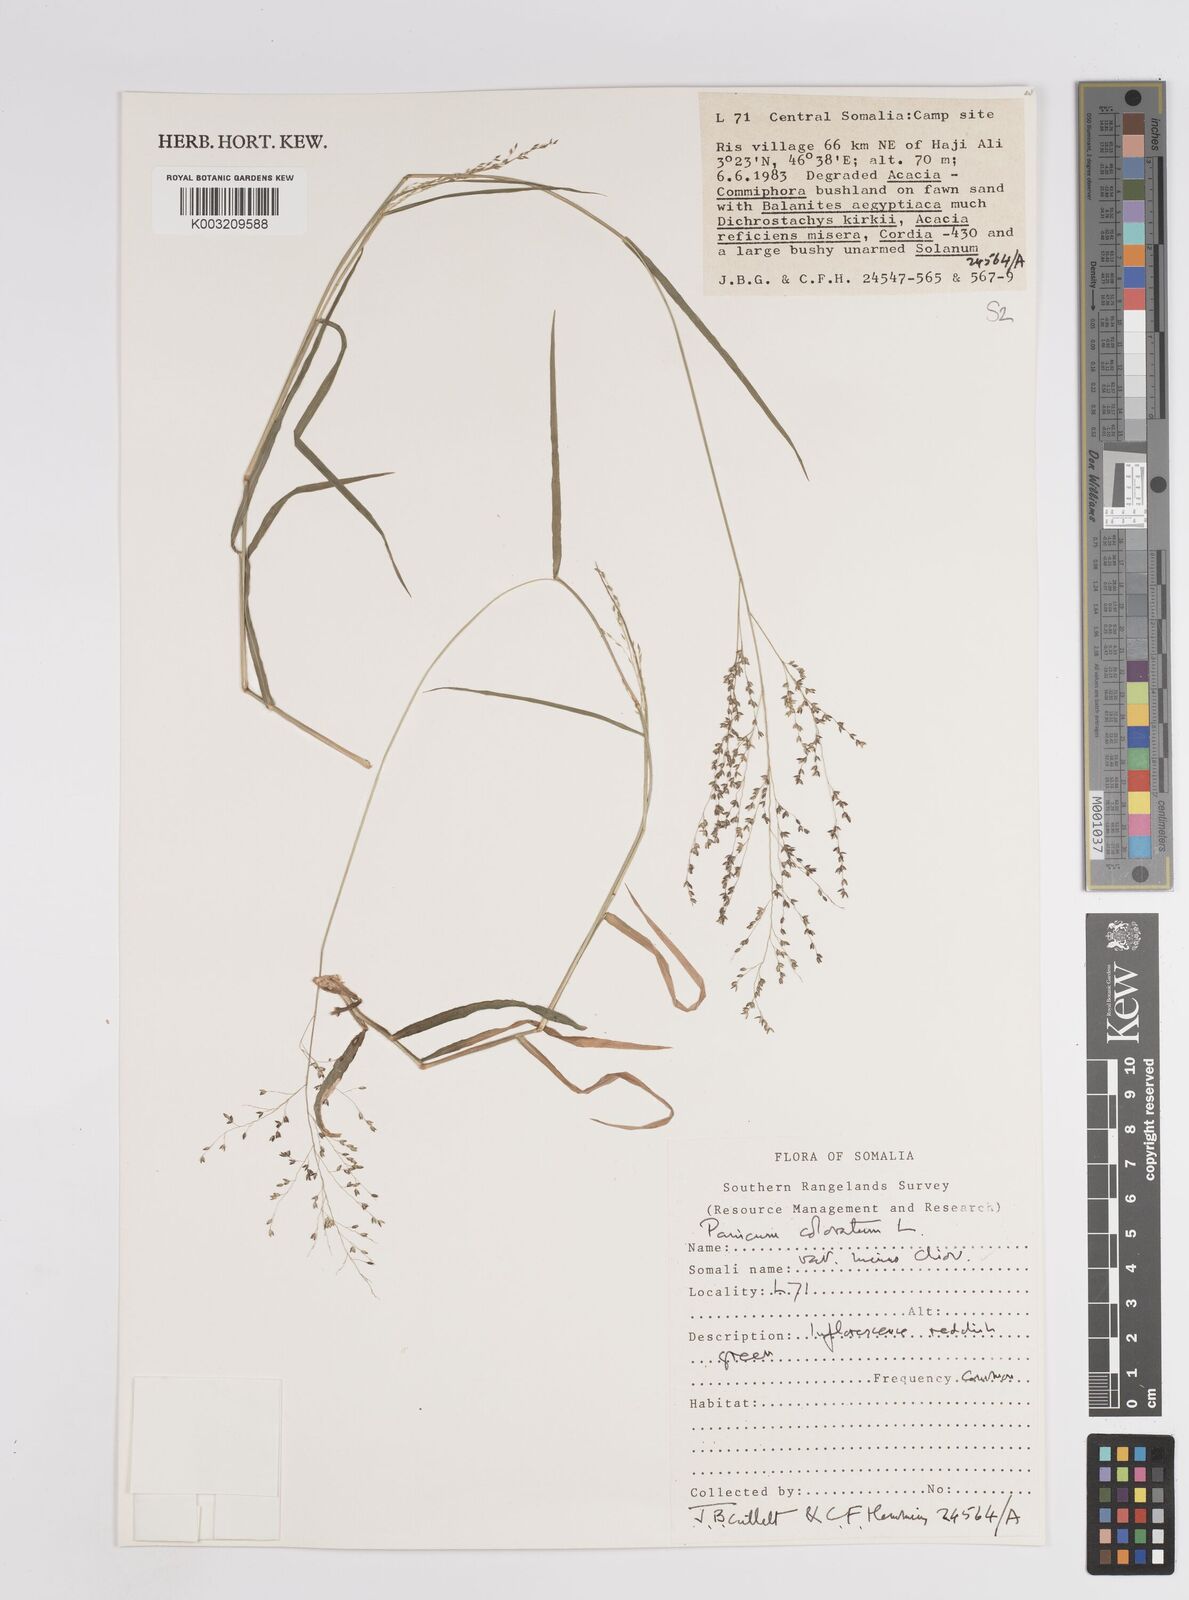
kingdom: Plantae
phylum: Tracheophyta
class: Liliopsida
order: Poales
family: Poaceae
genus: Panicum
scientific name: Panicum coloratum
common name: Kleingrass
